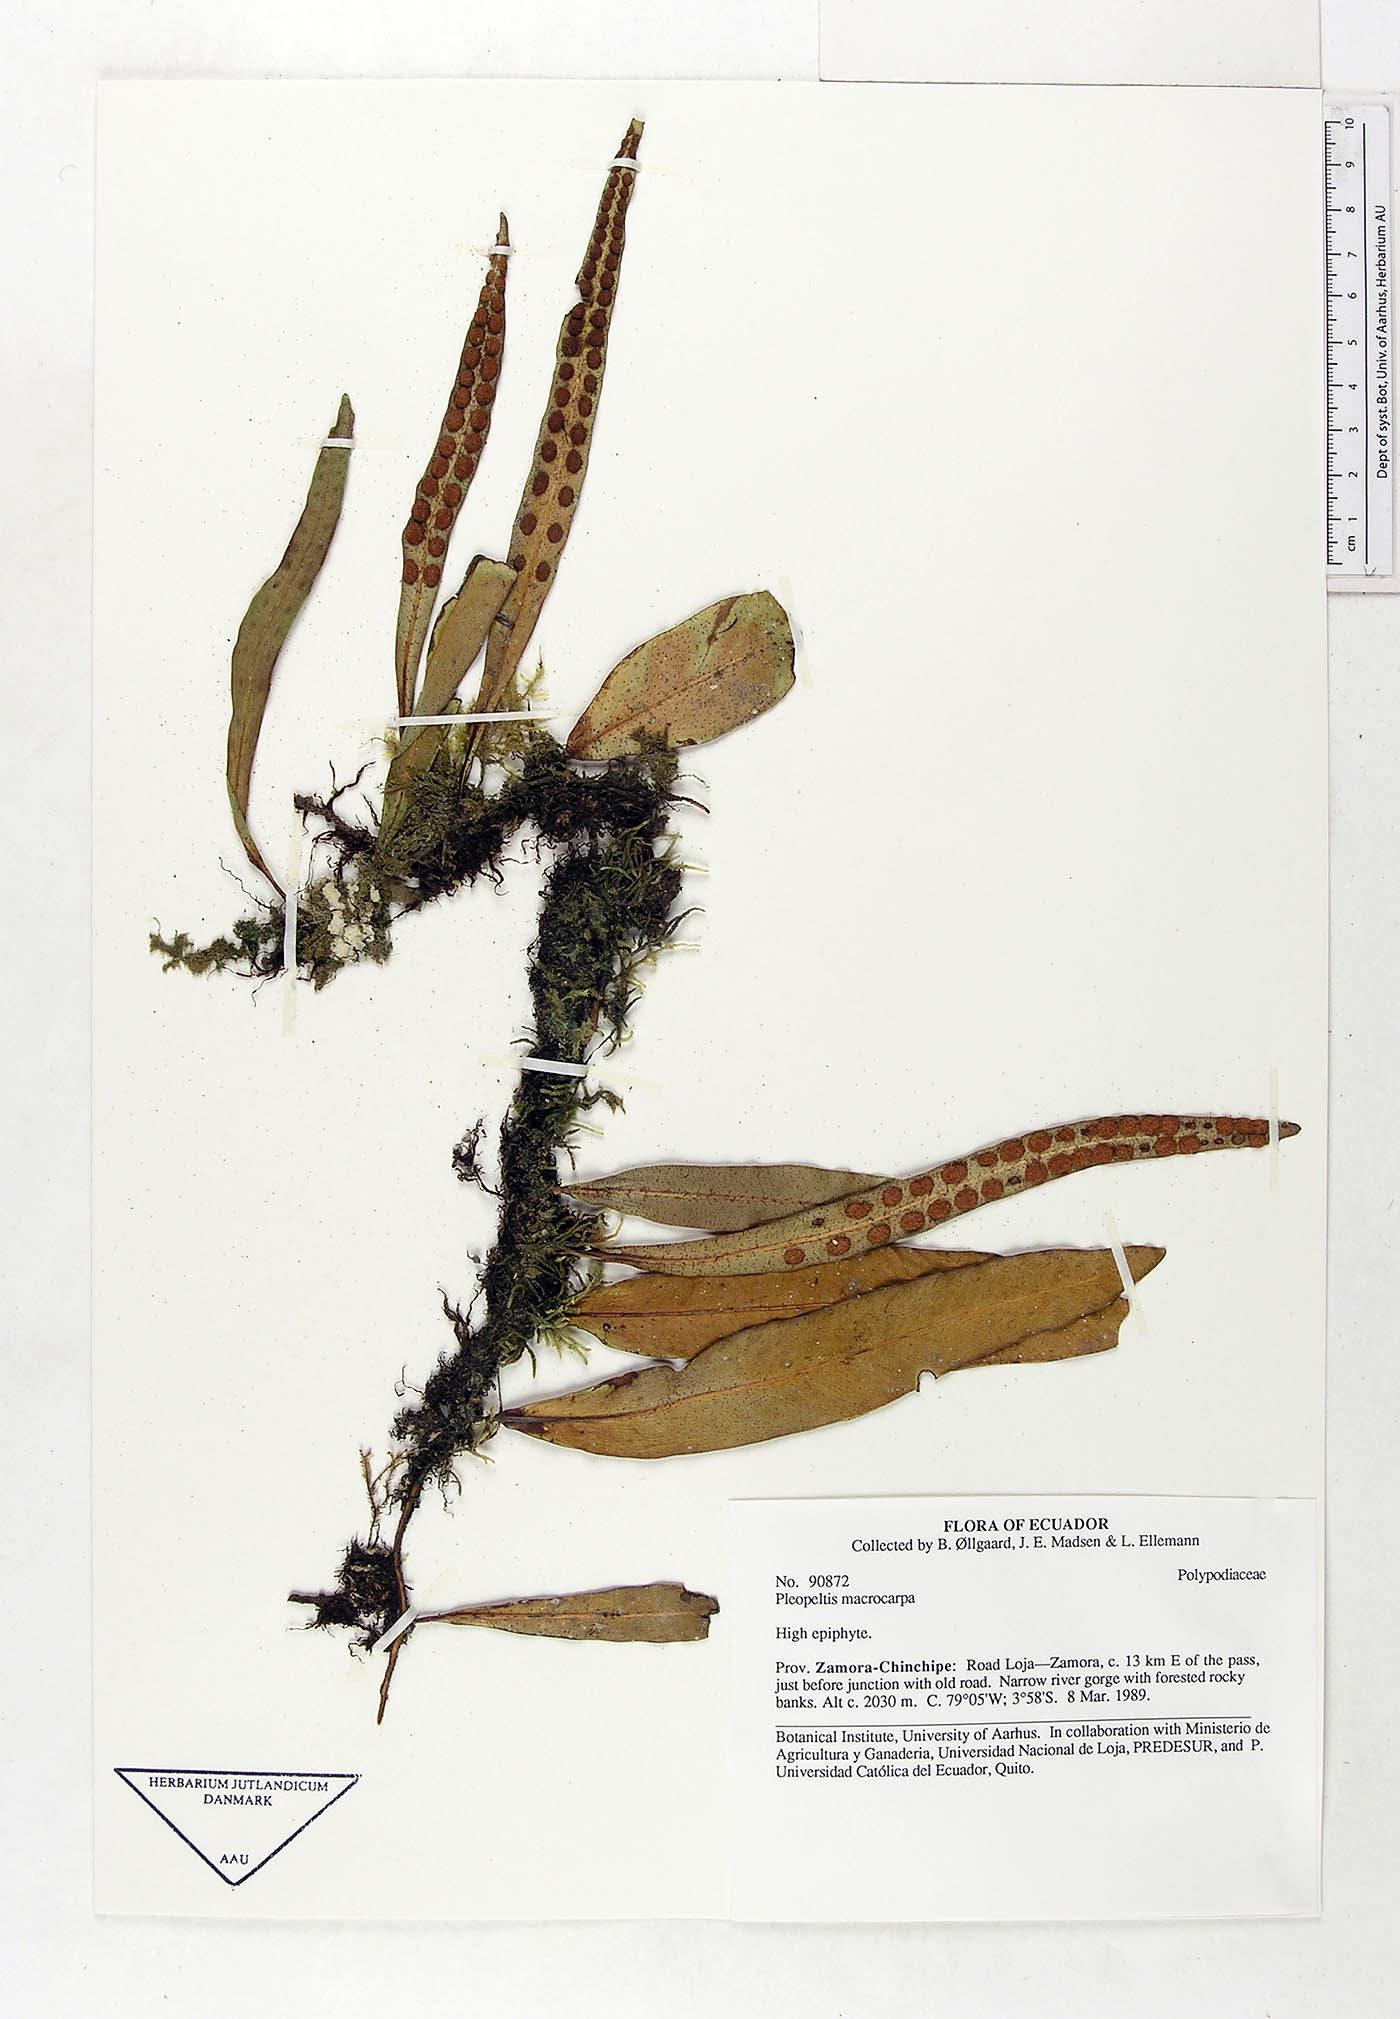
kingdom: Plantae
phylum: Tracheophyta
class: Polypodiopsida
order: Polypodiales
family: Polypodiaceae
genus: Pleopeltis
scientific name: Pleopeltis macrocarpa
